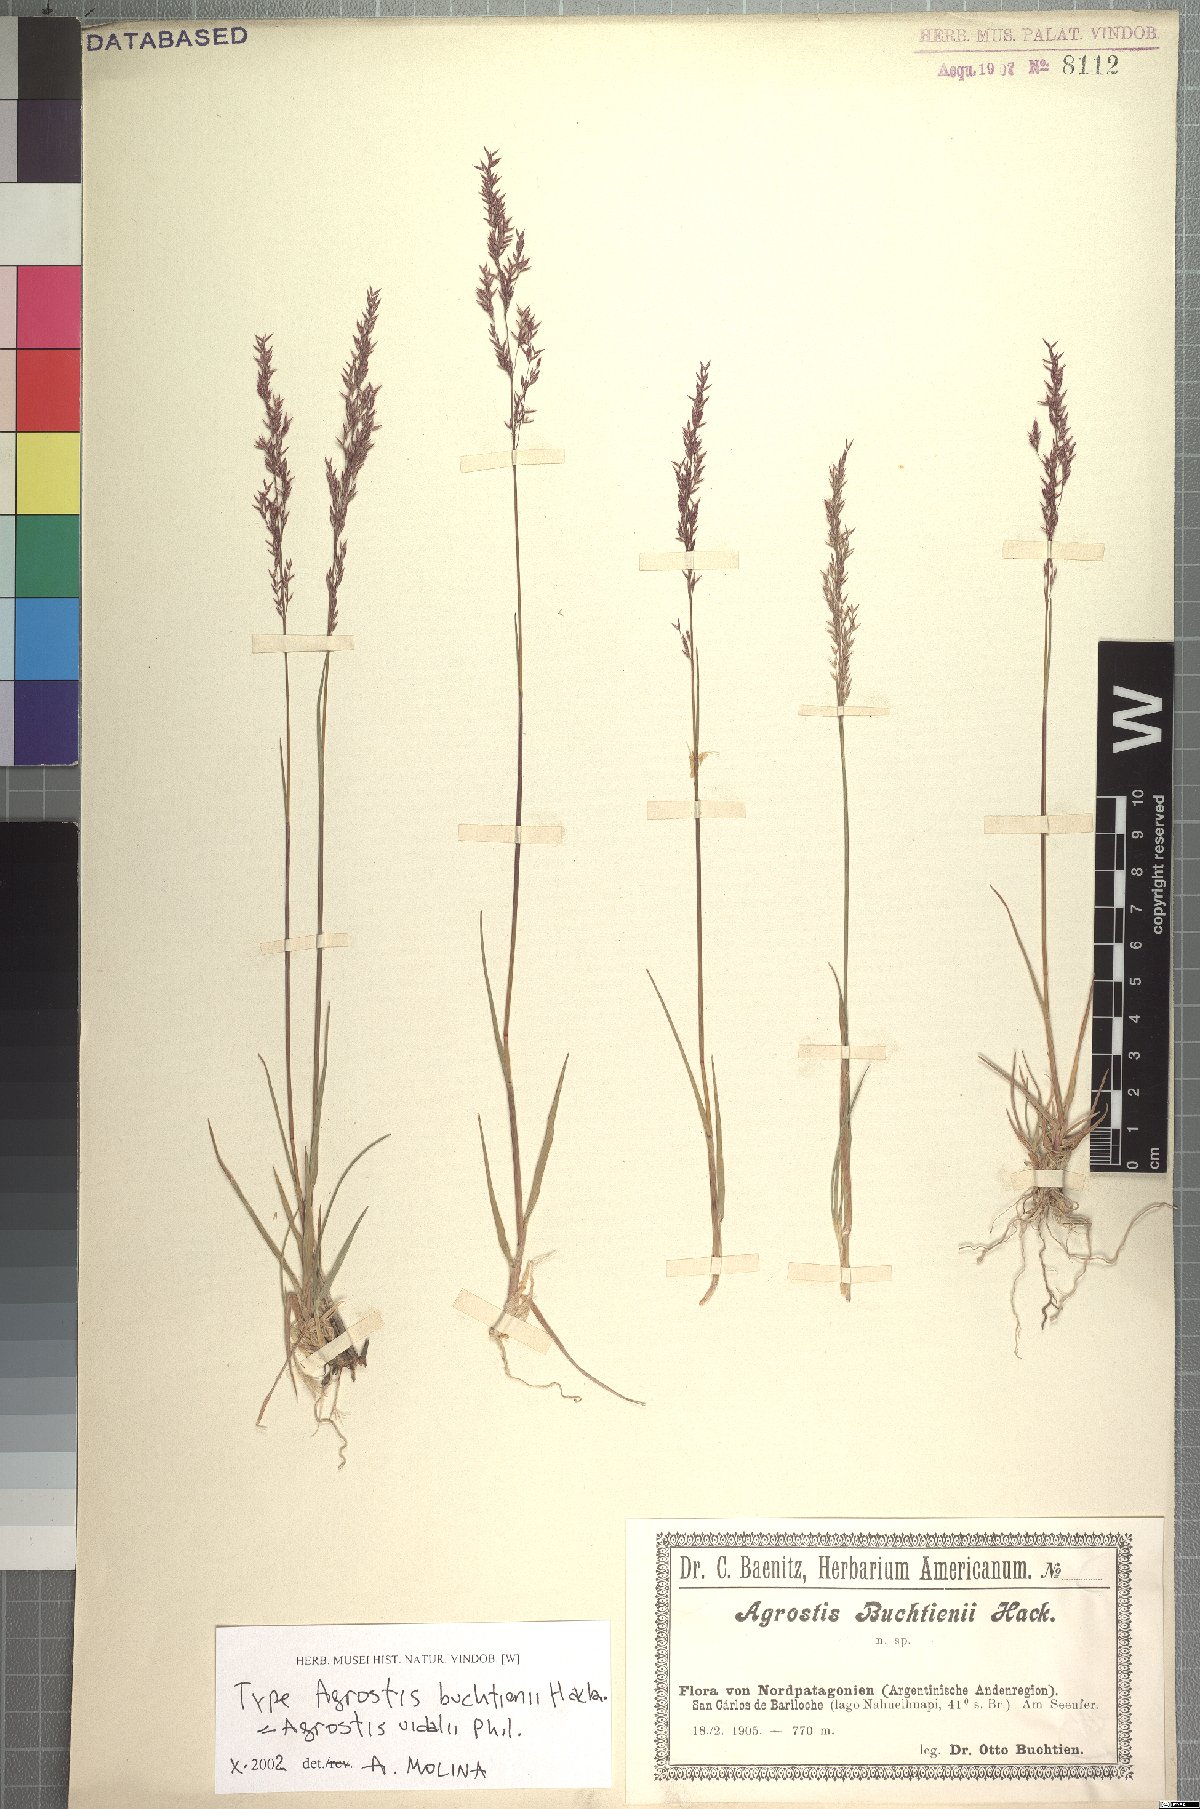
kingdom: Plantae
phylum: Tracheophyta
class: Liliopsida
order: Poales
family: Poaceae
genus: Agrostis
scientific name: Agrostis vidalii
